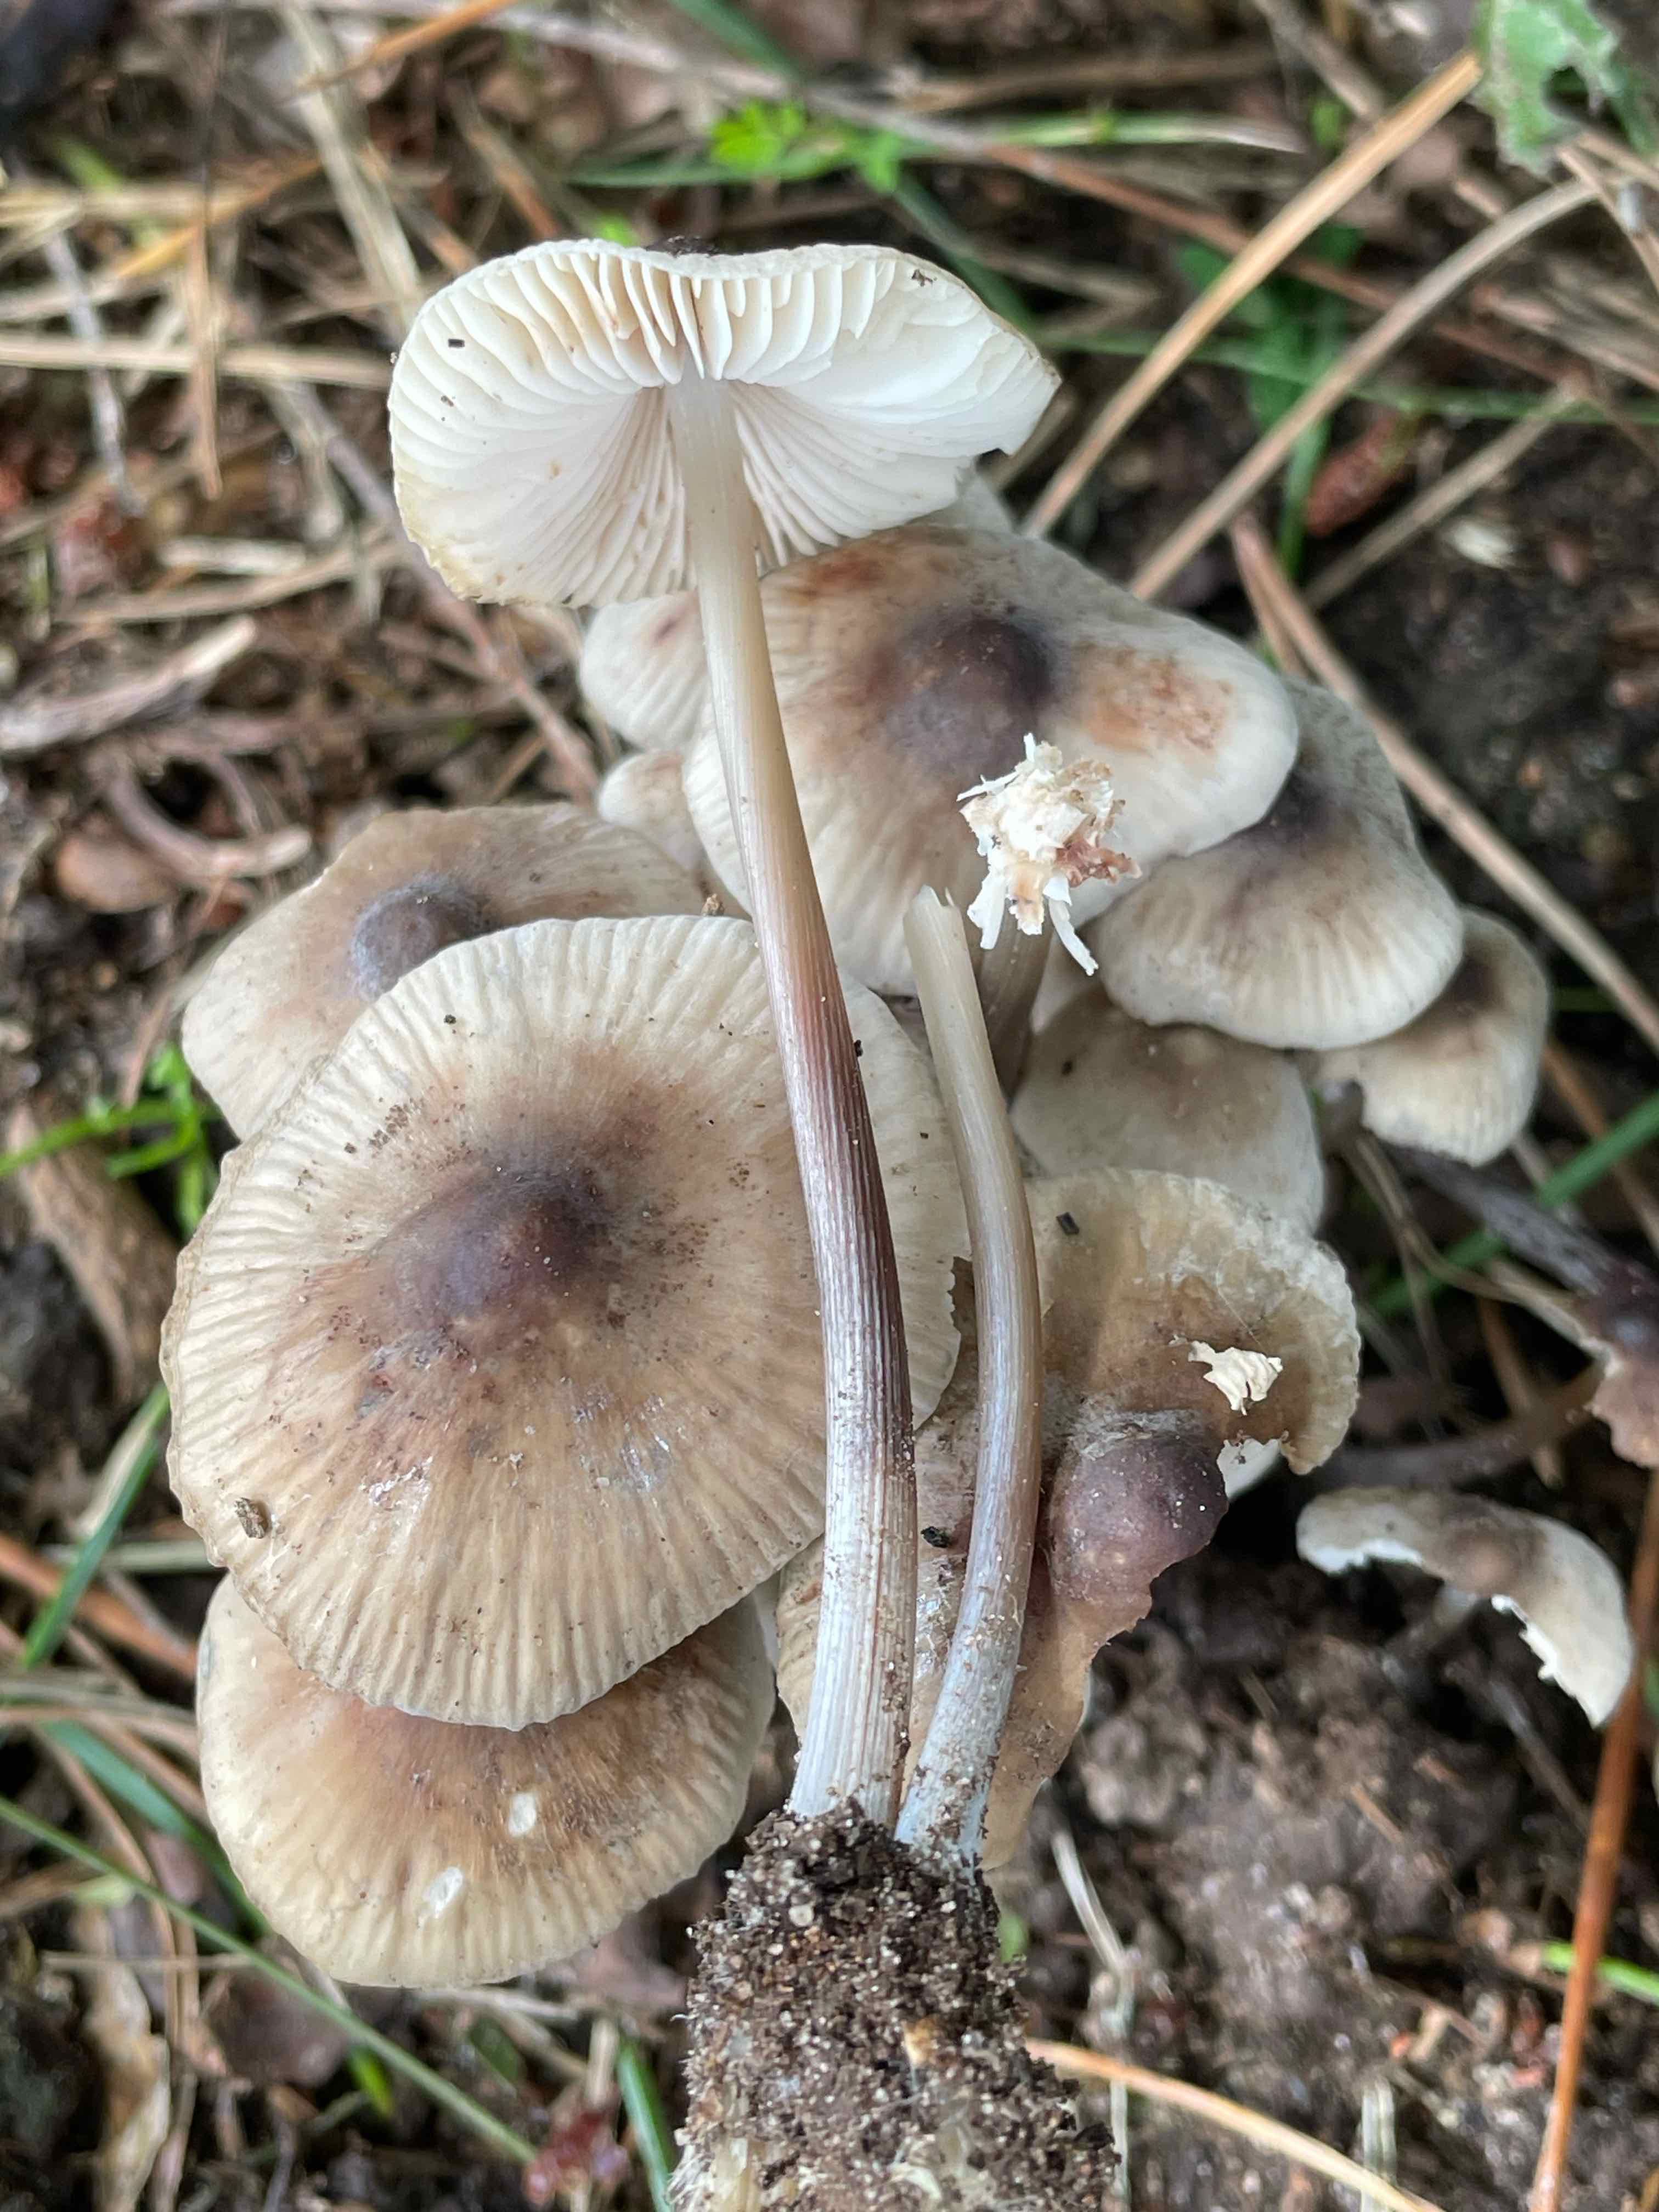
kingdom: Fungi
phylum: Basidiomycota
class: Agaricomycetes
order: Agaricales
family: Mycenaceae
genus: Mycena
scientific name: Mycena polygramma
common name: mangestribet huesvamp
